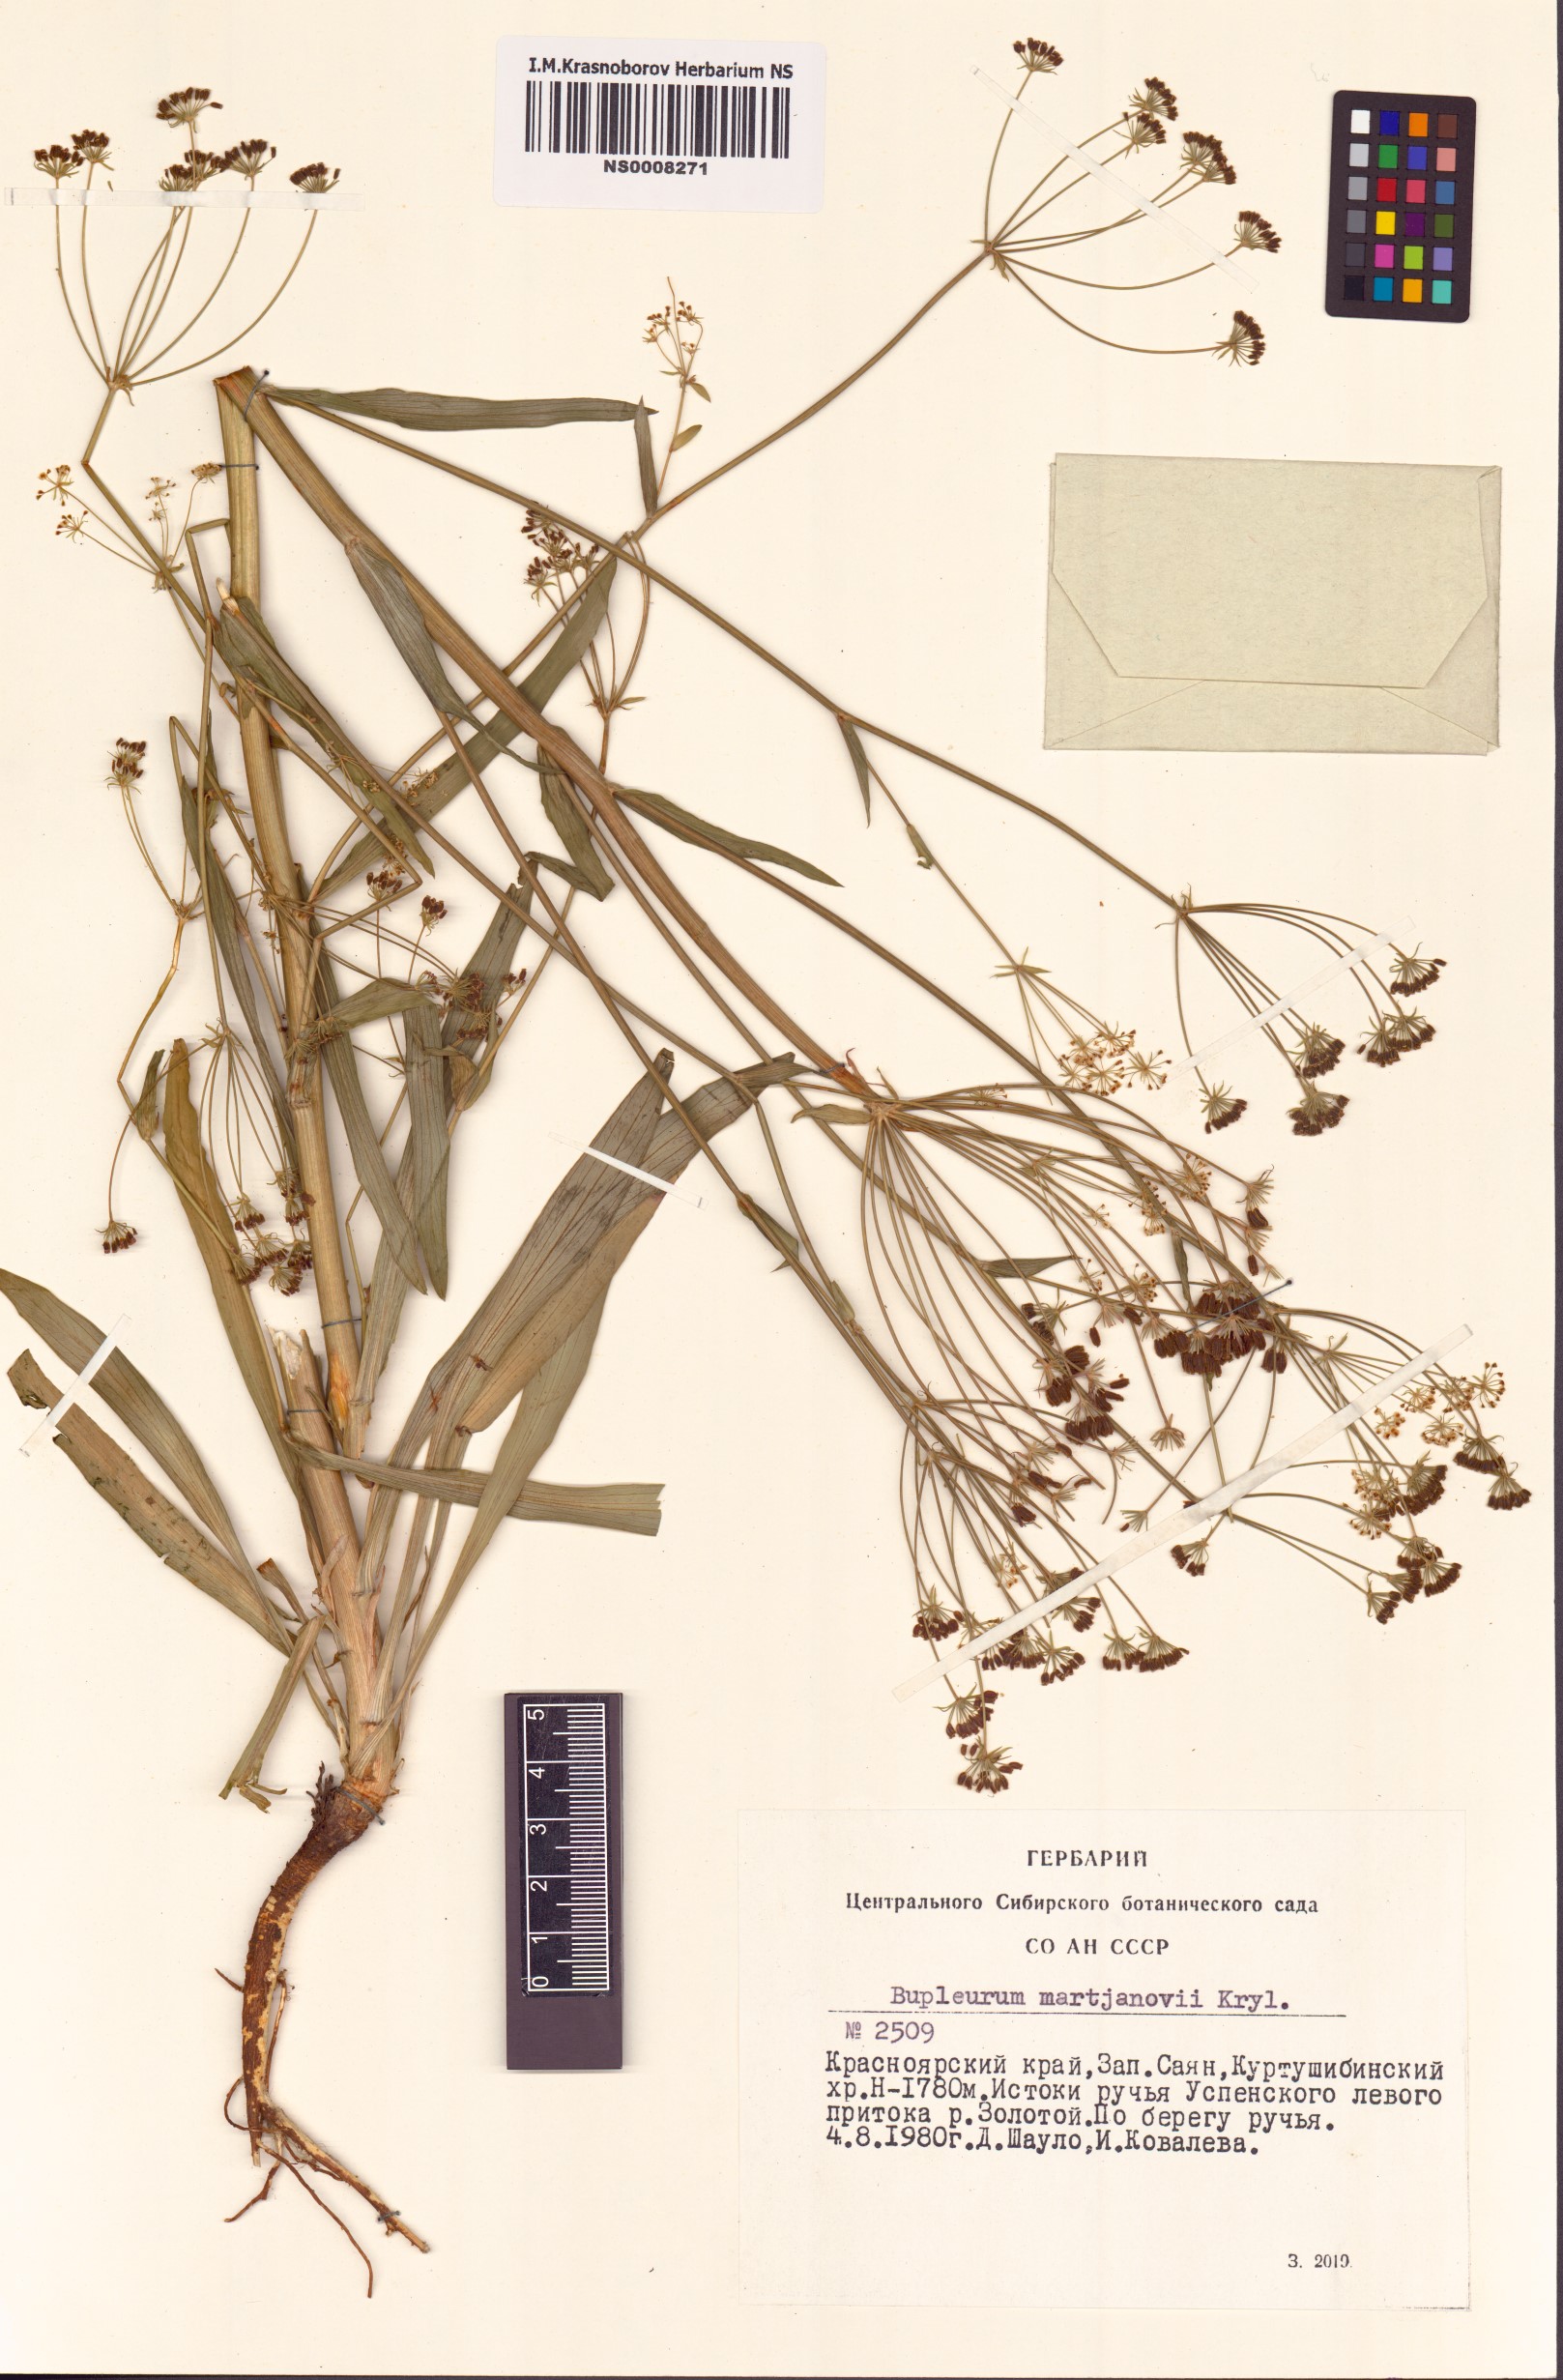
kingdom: Plantae
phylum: Tracheophyta
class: Magnoliopsida
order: Apiales
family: Apiaceae
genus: Bupleurum
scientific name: Bupleurum martjanovii
